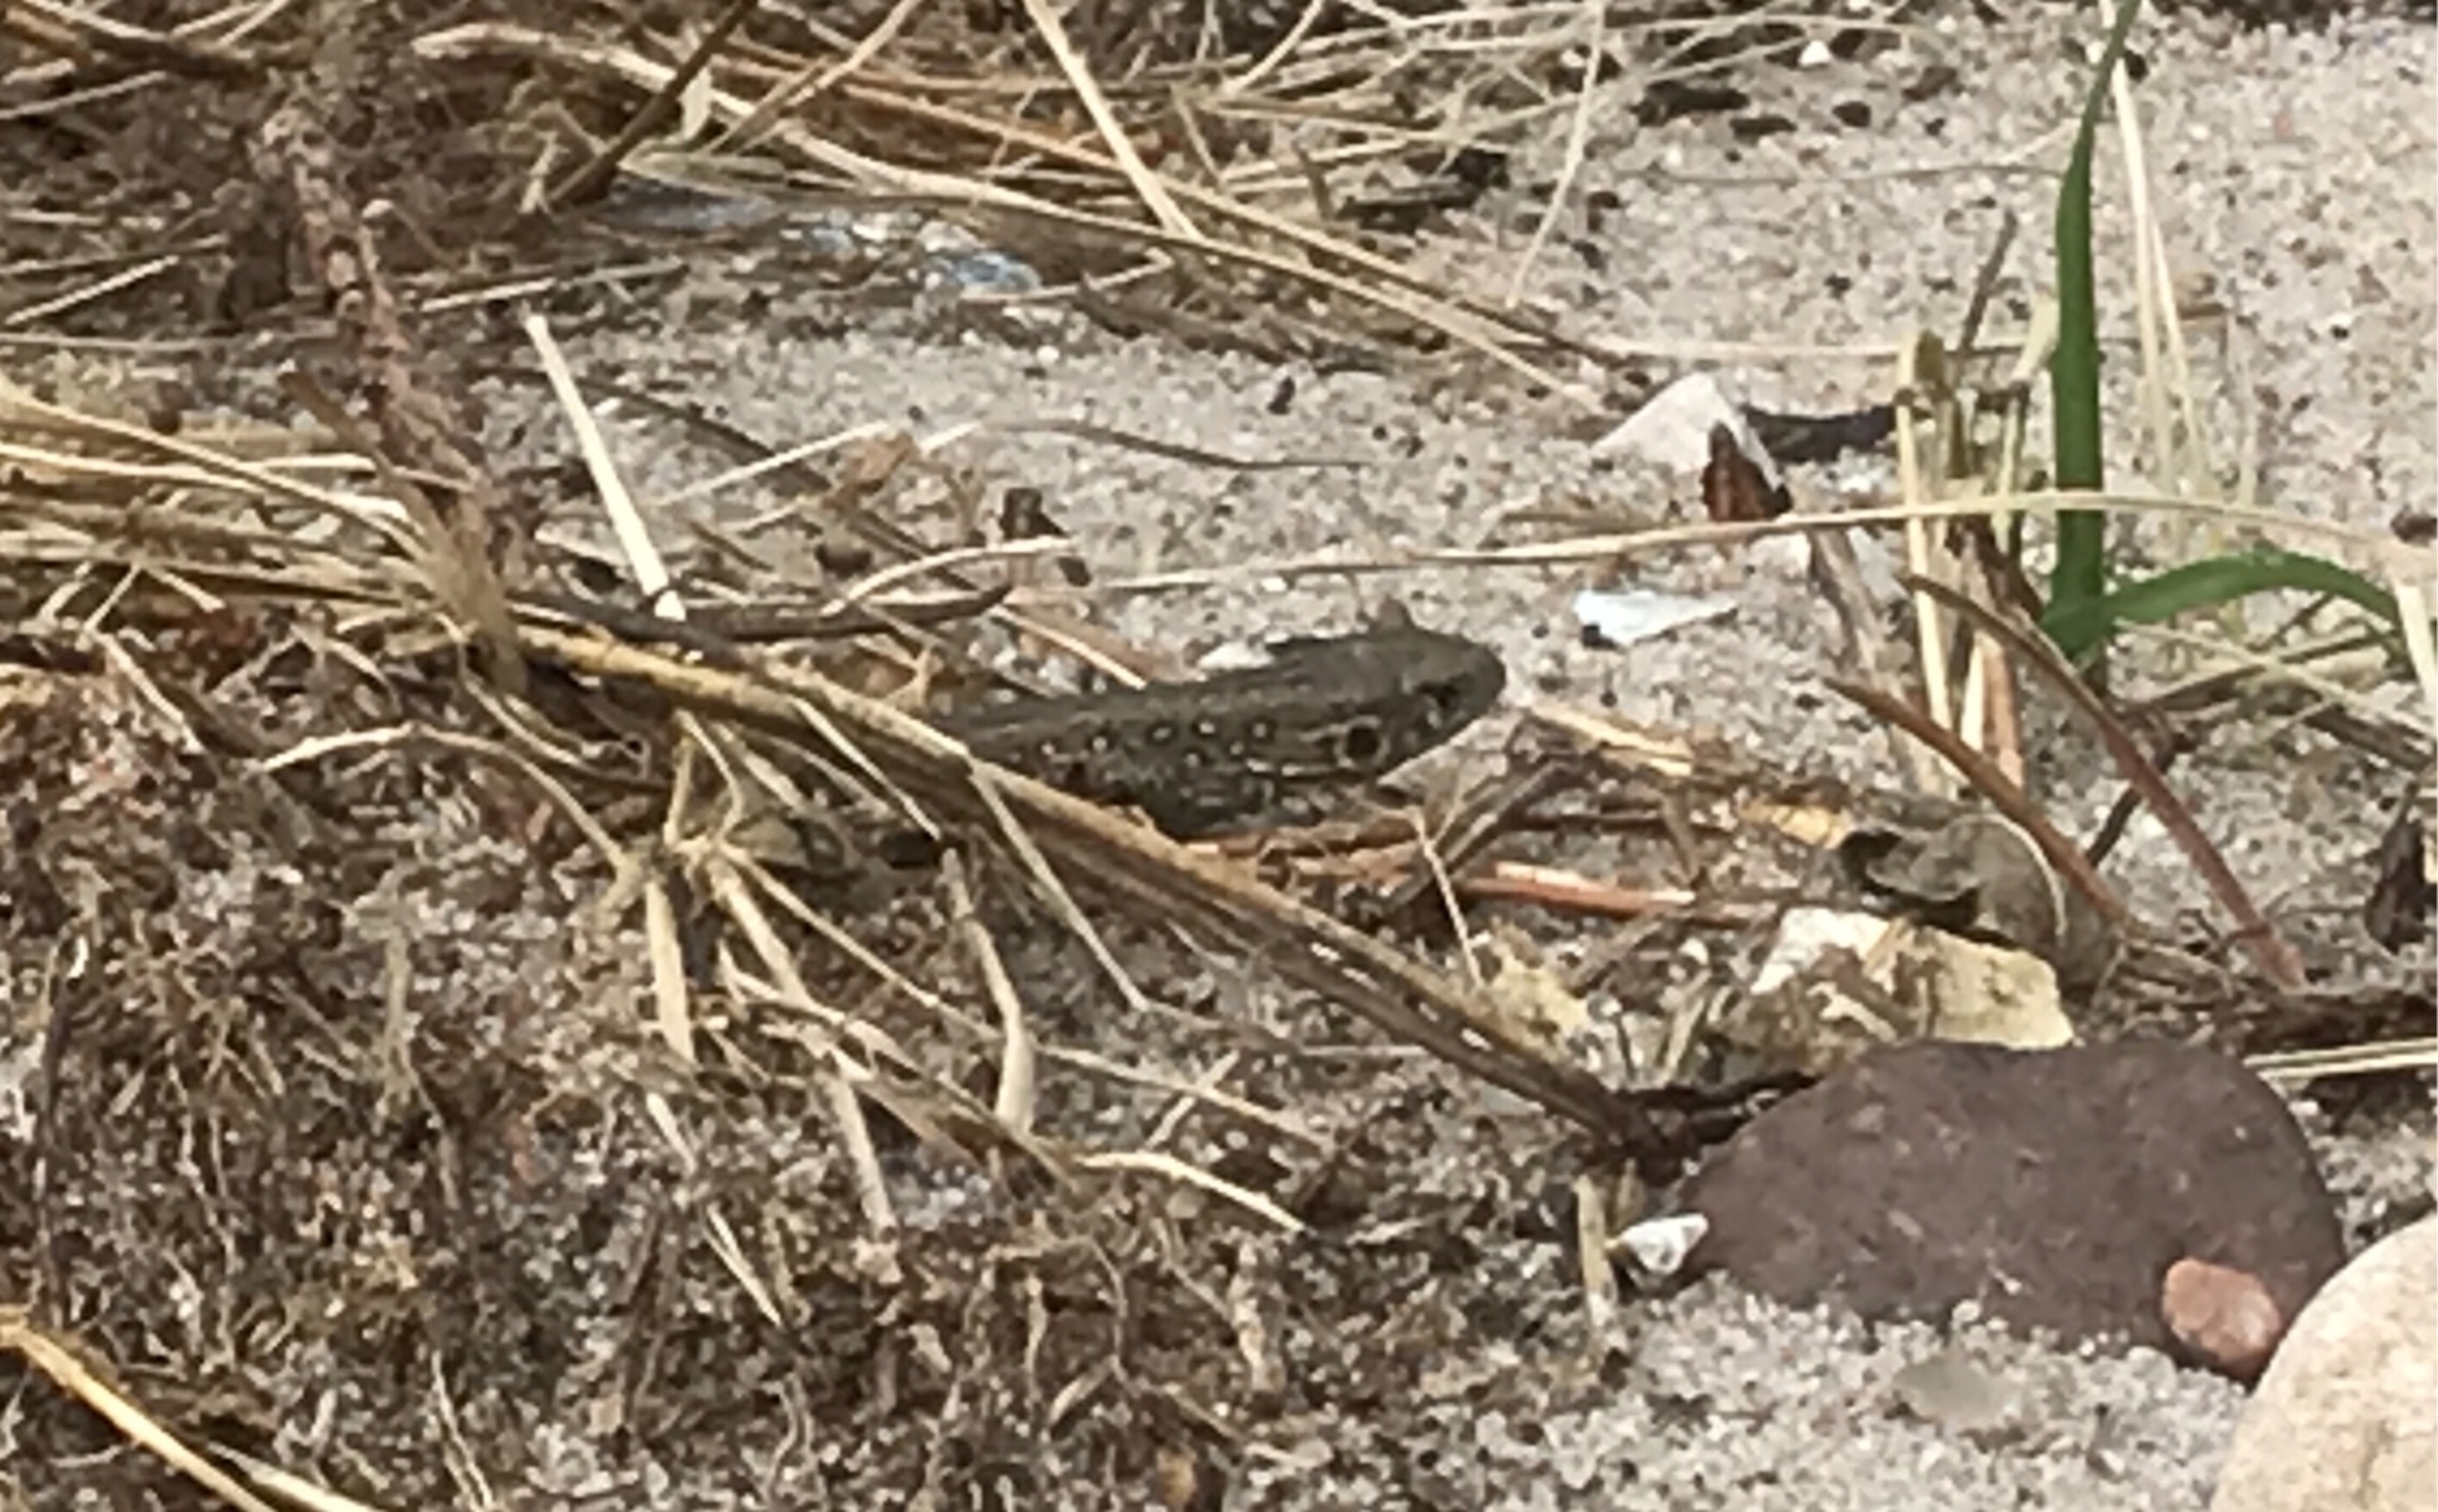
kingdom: Animalia
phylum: Chordata
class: Squamata
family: Lacertidae
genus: Lacerta
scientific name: Lacerta agilis
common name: Markfirben
